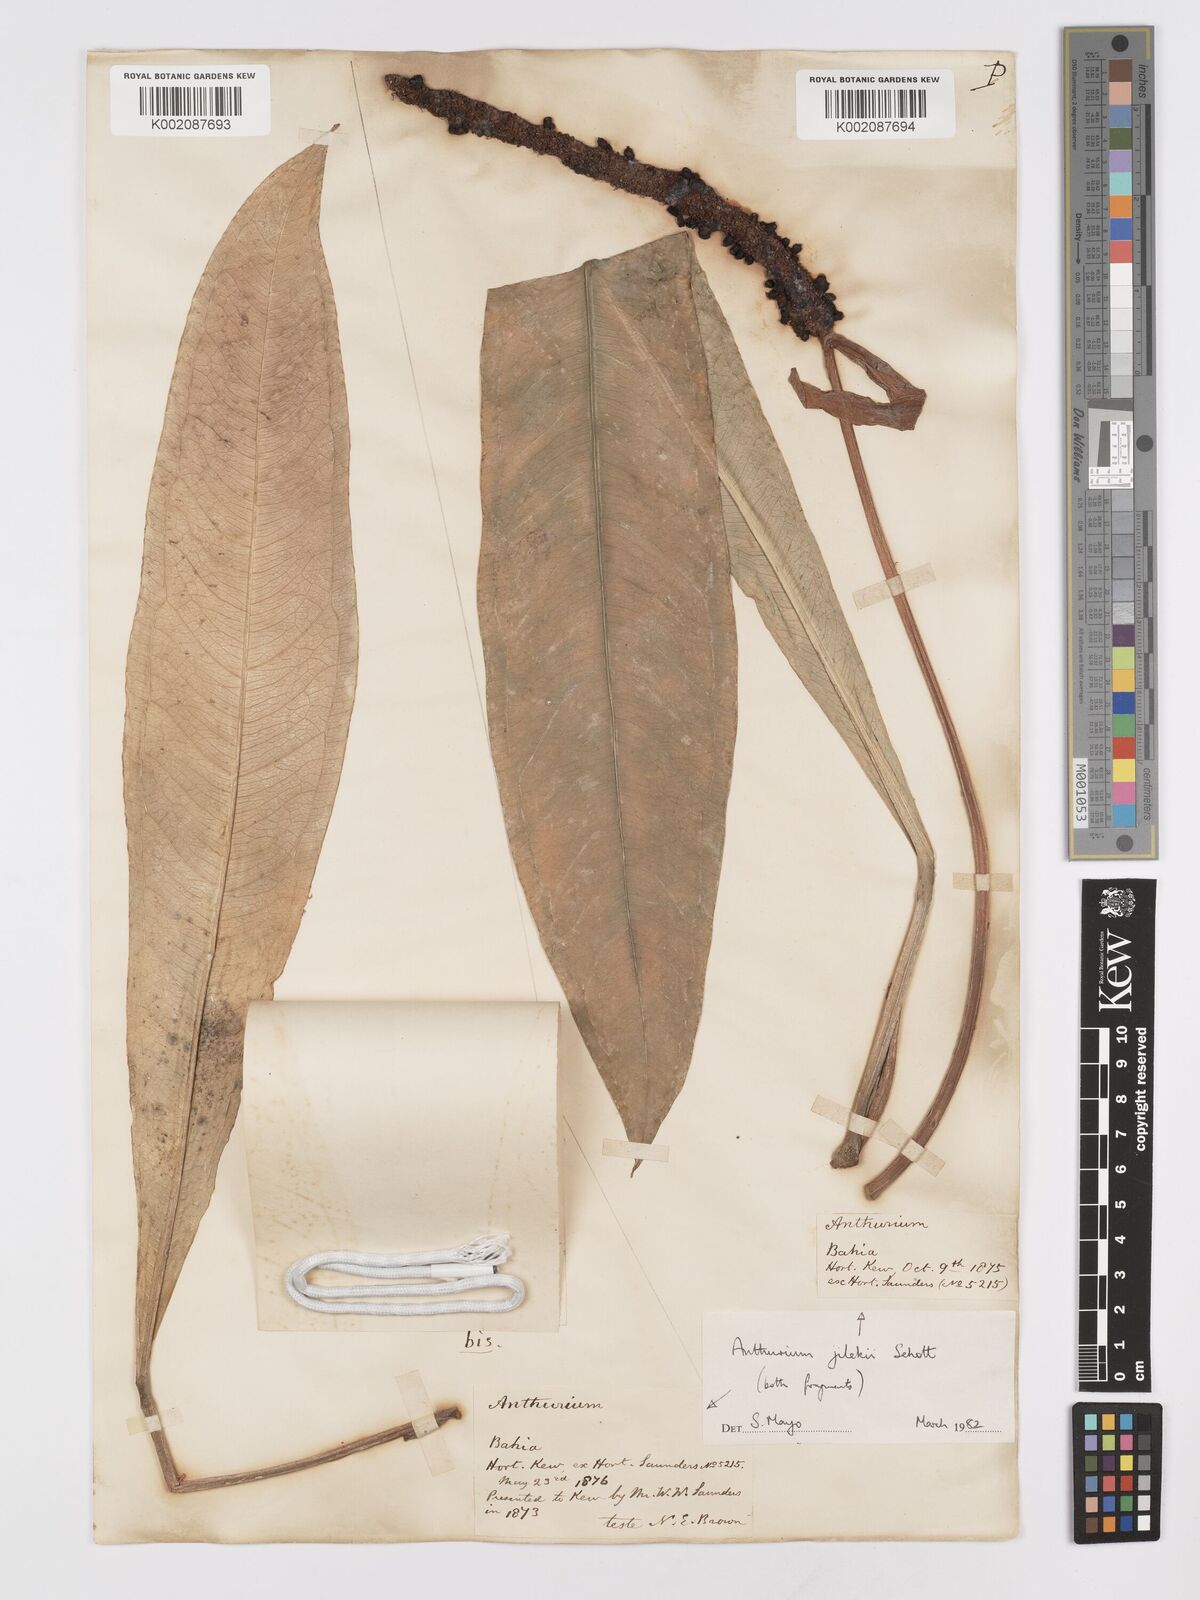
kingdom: Plantae
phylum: Tracheophyta
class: Liliopsida
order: Alismatales
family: Araceae
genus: Anthurium
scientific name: Anthurium jilekii
